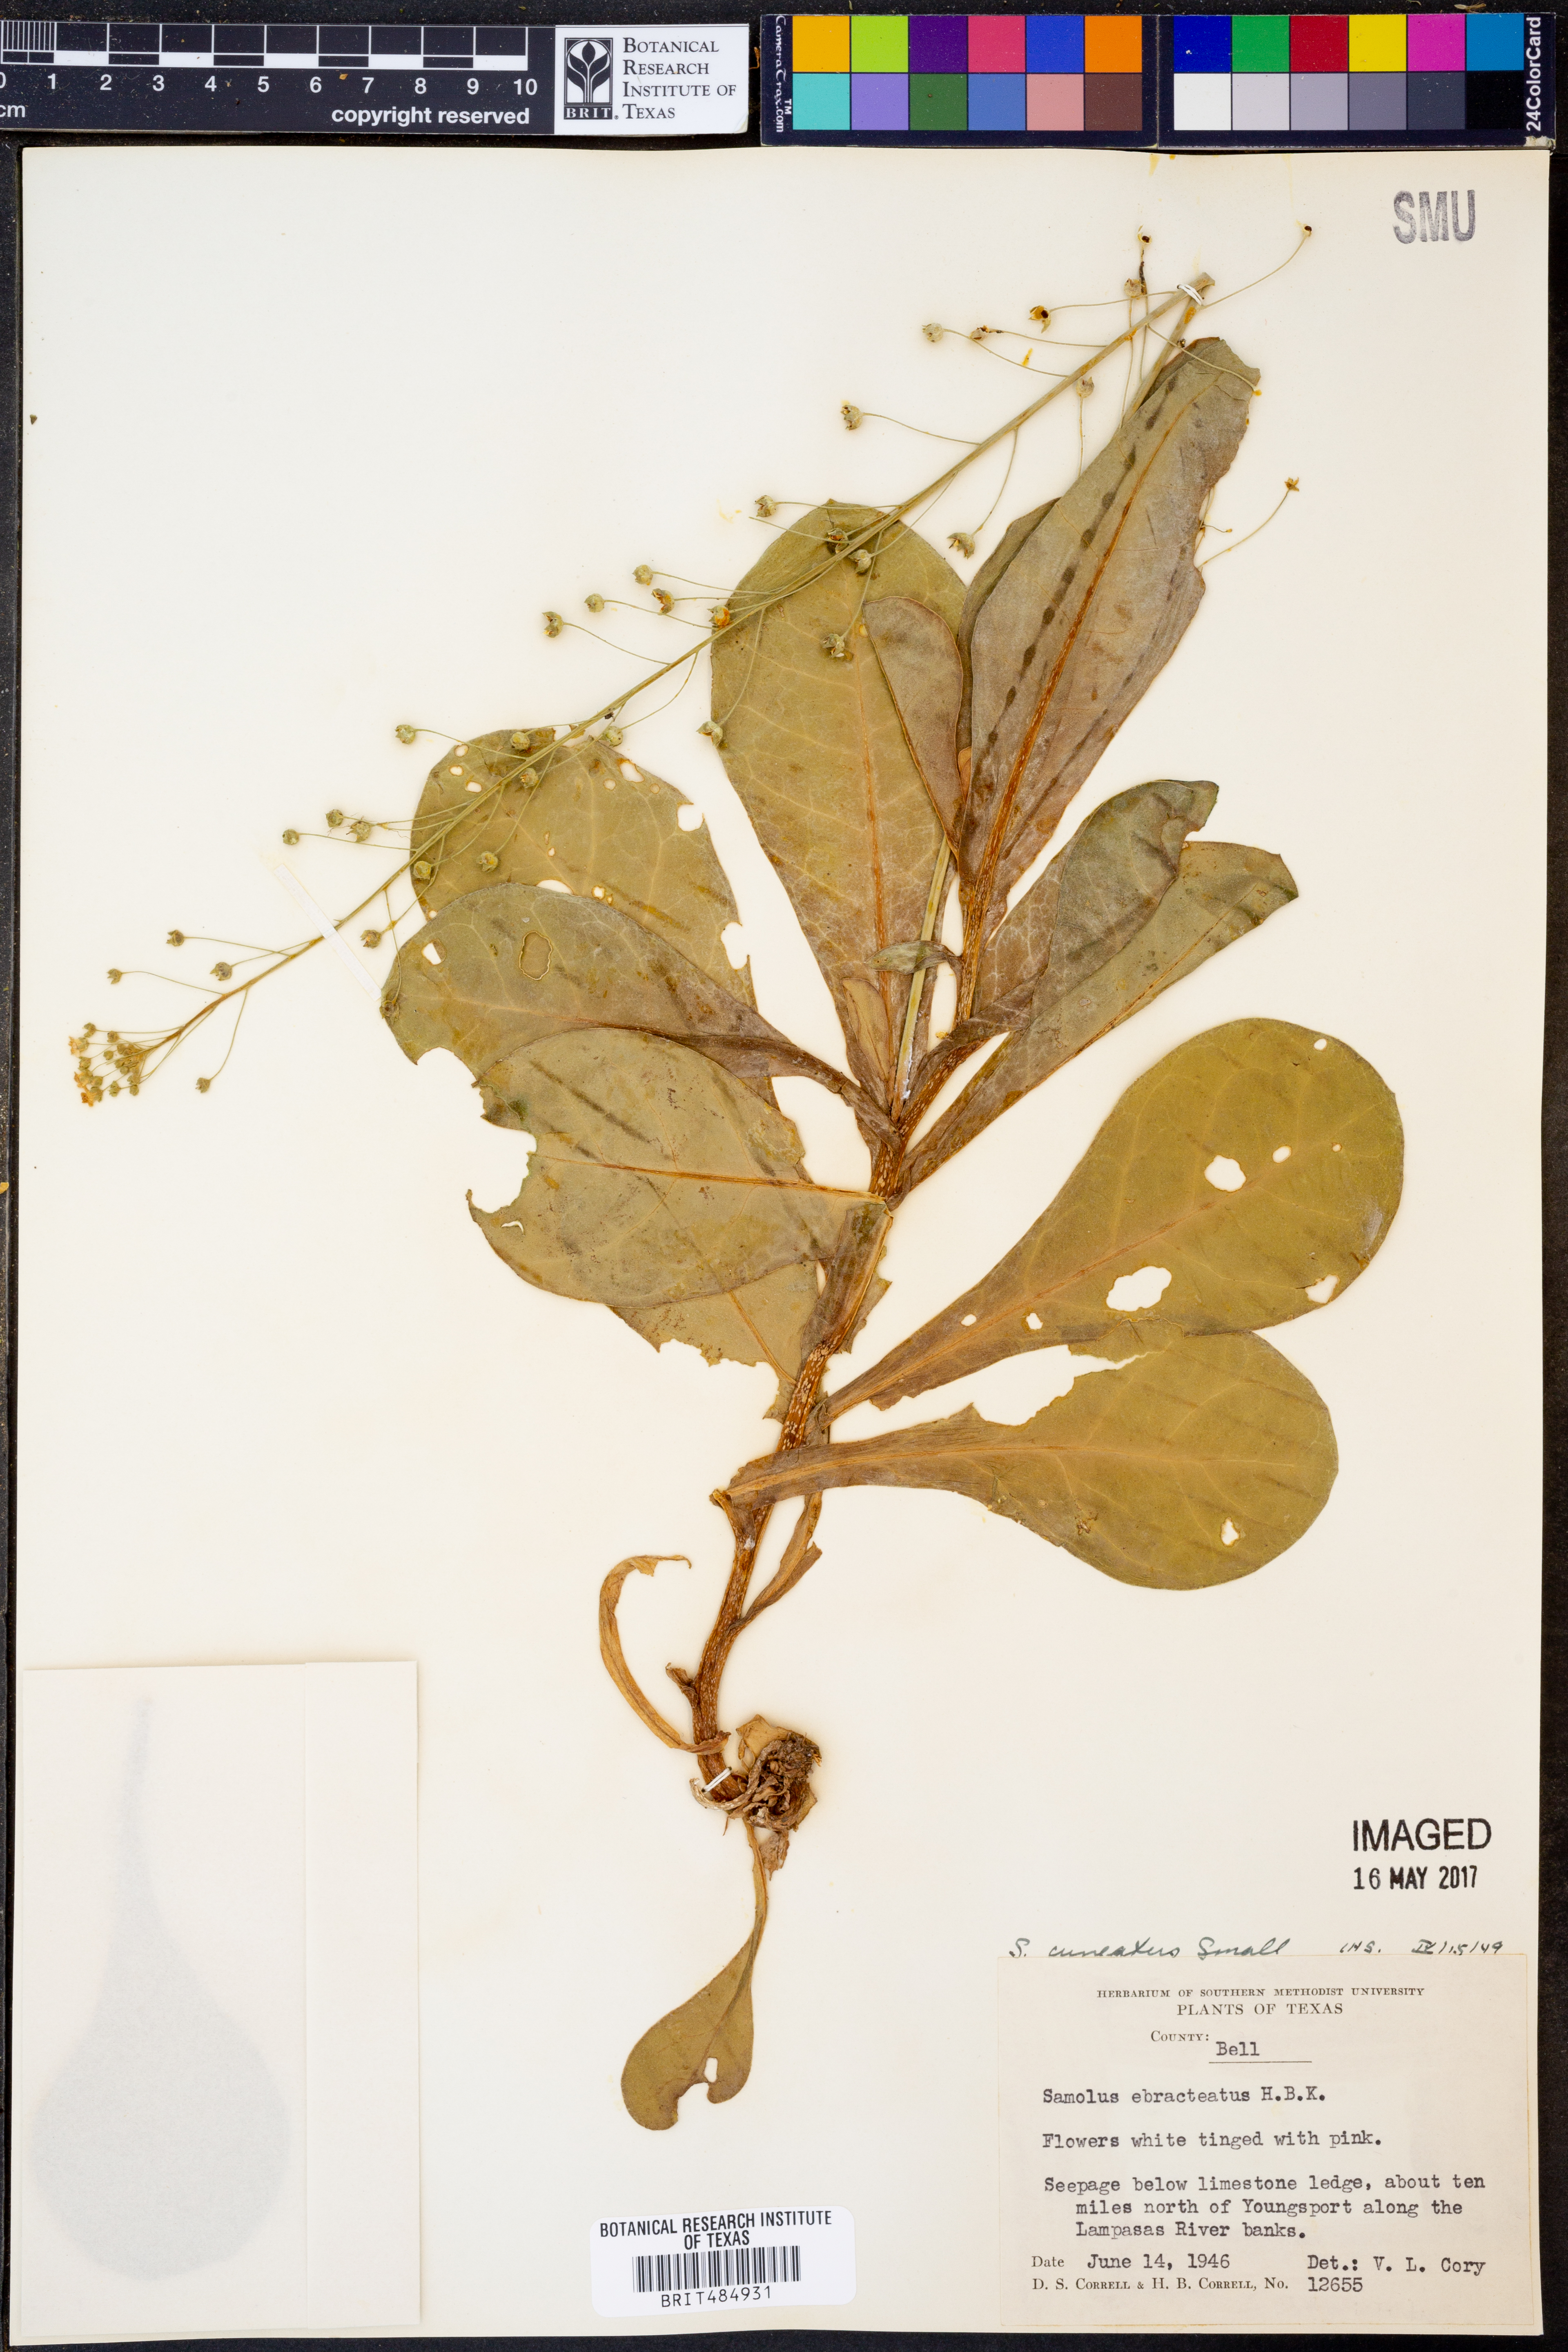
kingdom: Plantae
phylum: Tracheophyta
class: Magnoliopsida
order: Ericales
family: Primulaceae
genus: Samolus
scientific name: Samolus ebracteatus
